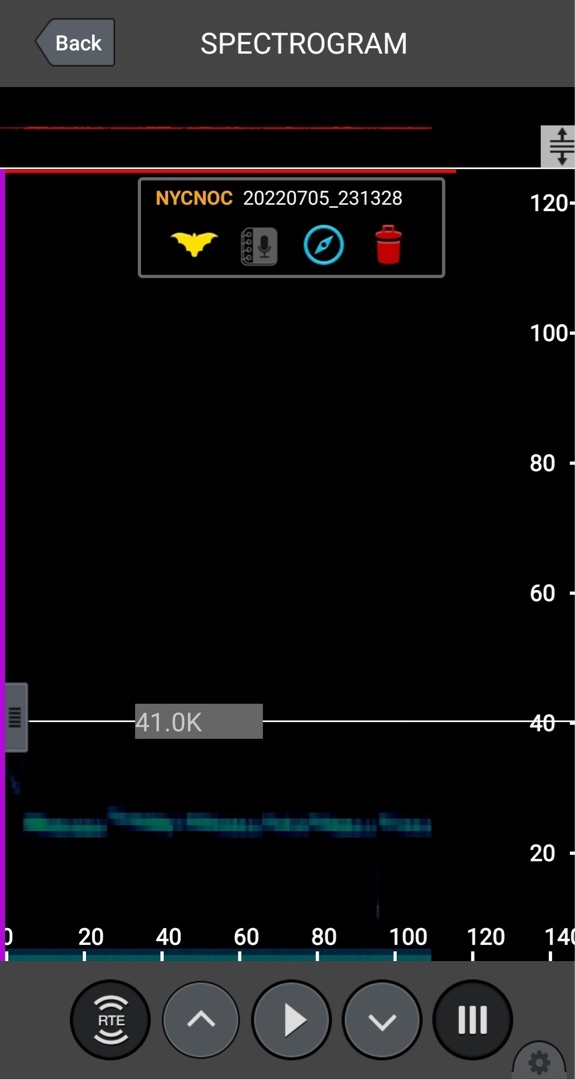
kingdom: Animalia
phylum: Chordata
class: Mammalia
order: Chiroptera
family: Vespertilionidae
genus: Nyctalus
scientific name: Nyctalus noctula
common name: Brunflagermus
